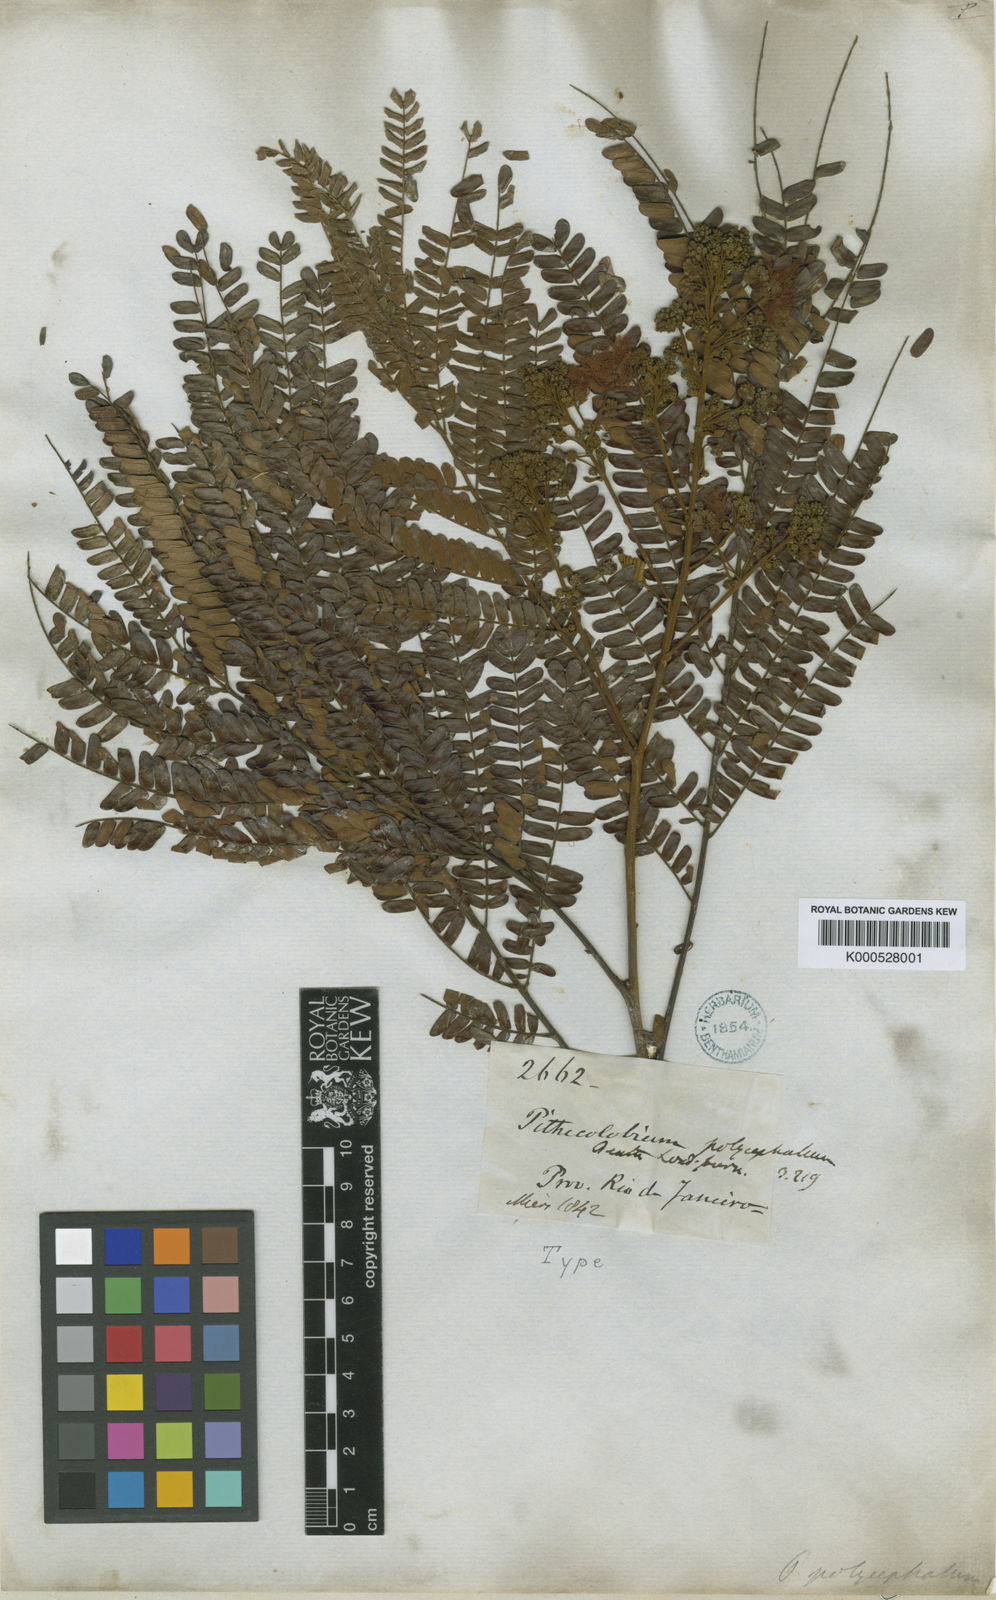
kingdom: Plantae
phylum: Tracheophyta
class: Magnoliopsida
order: Fabales
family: Fabaceae
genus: Albizia
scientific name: Albizia
